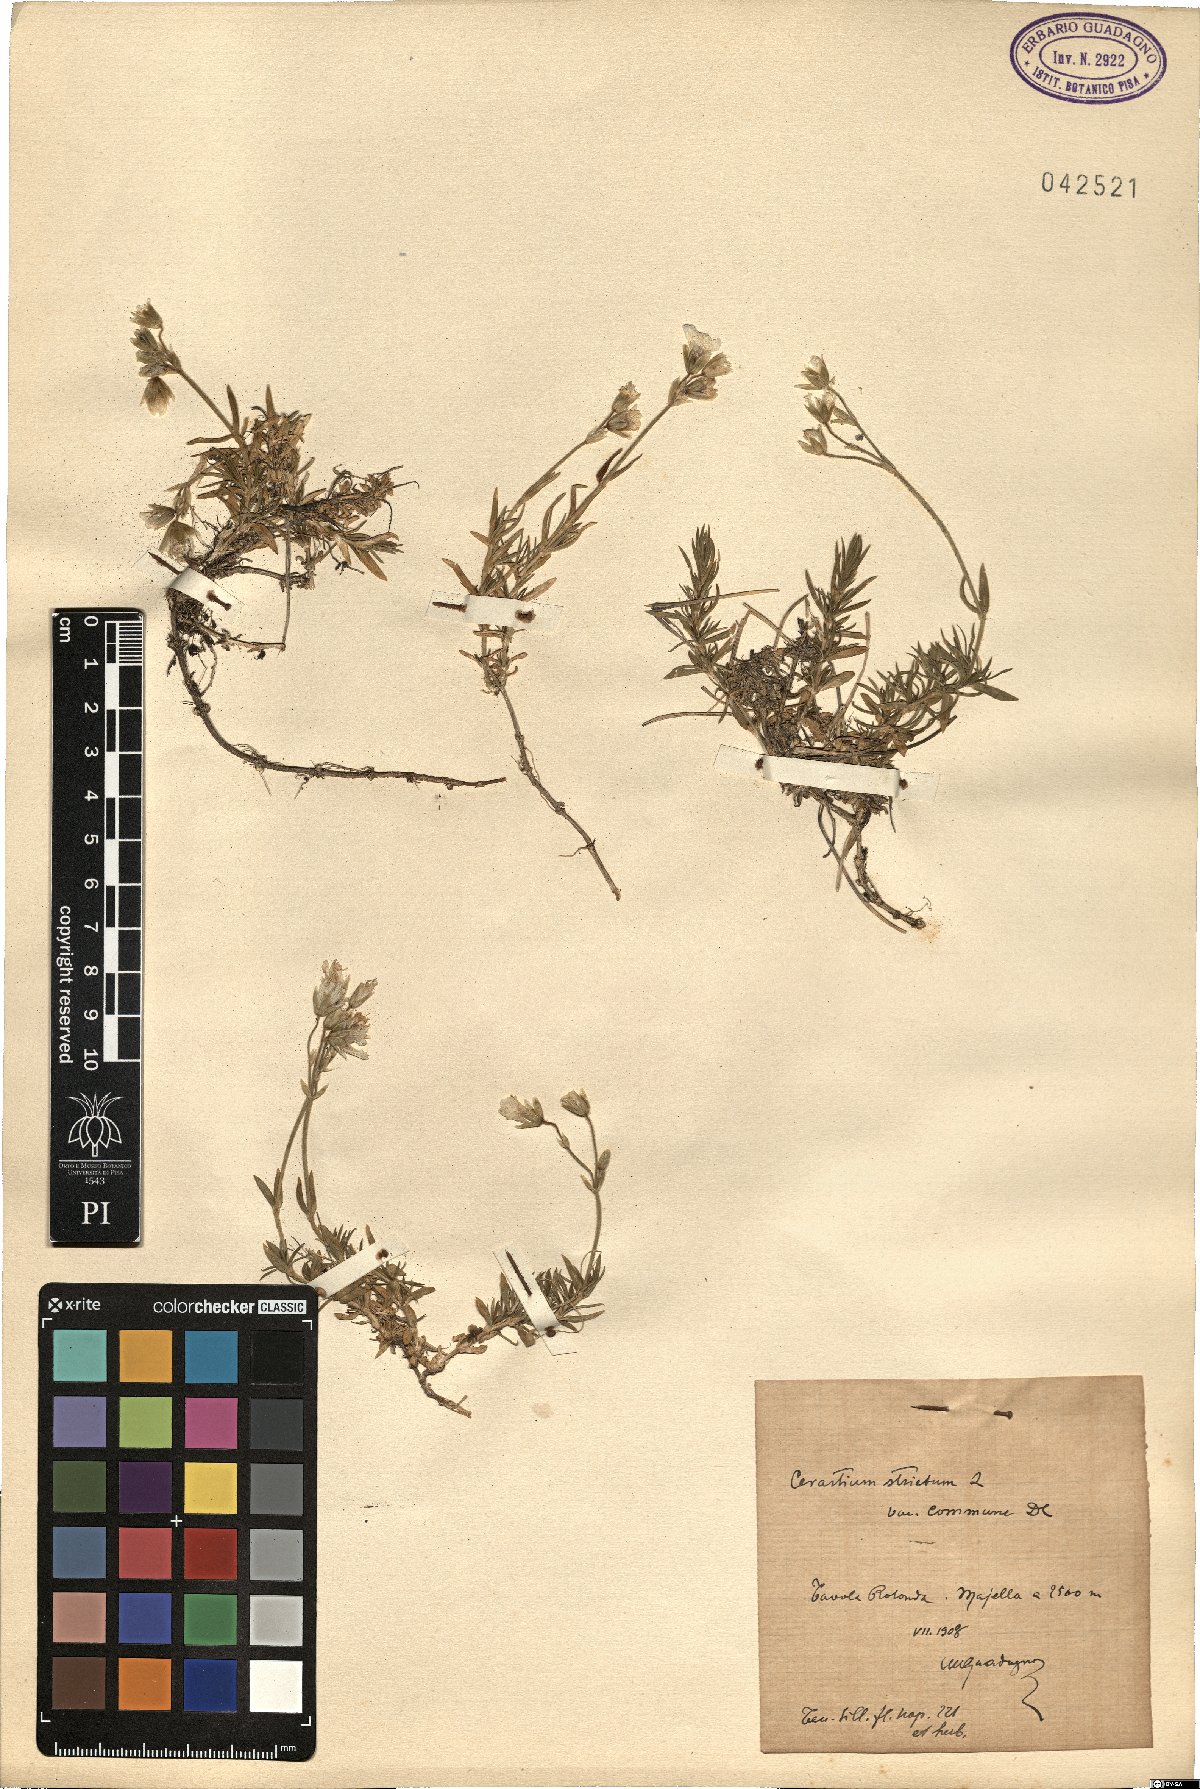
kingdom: Plantae
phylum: Tracheophyta
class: Magnoliopsida
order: Caryophyllales
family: Caryophyllaceae
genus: Cerastium
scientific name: Cerastium elongatum
